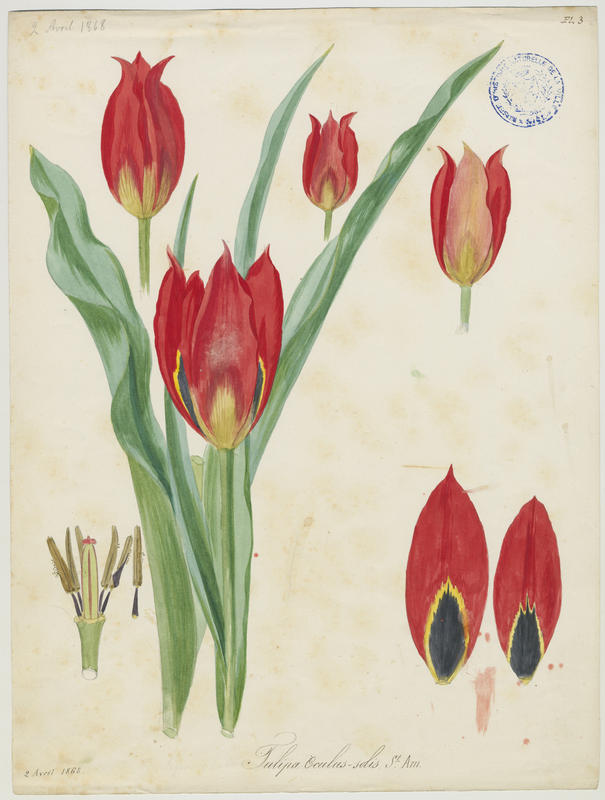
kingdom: Plantae
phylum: Tracheophyta
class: Liliopsida
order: Liliales
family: Liliaceae
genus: Tulipa
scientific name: Tulipa agenensis
